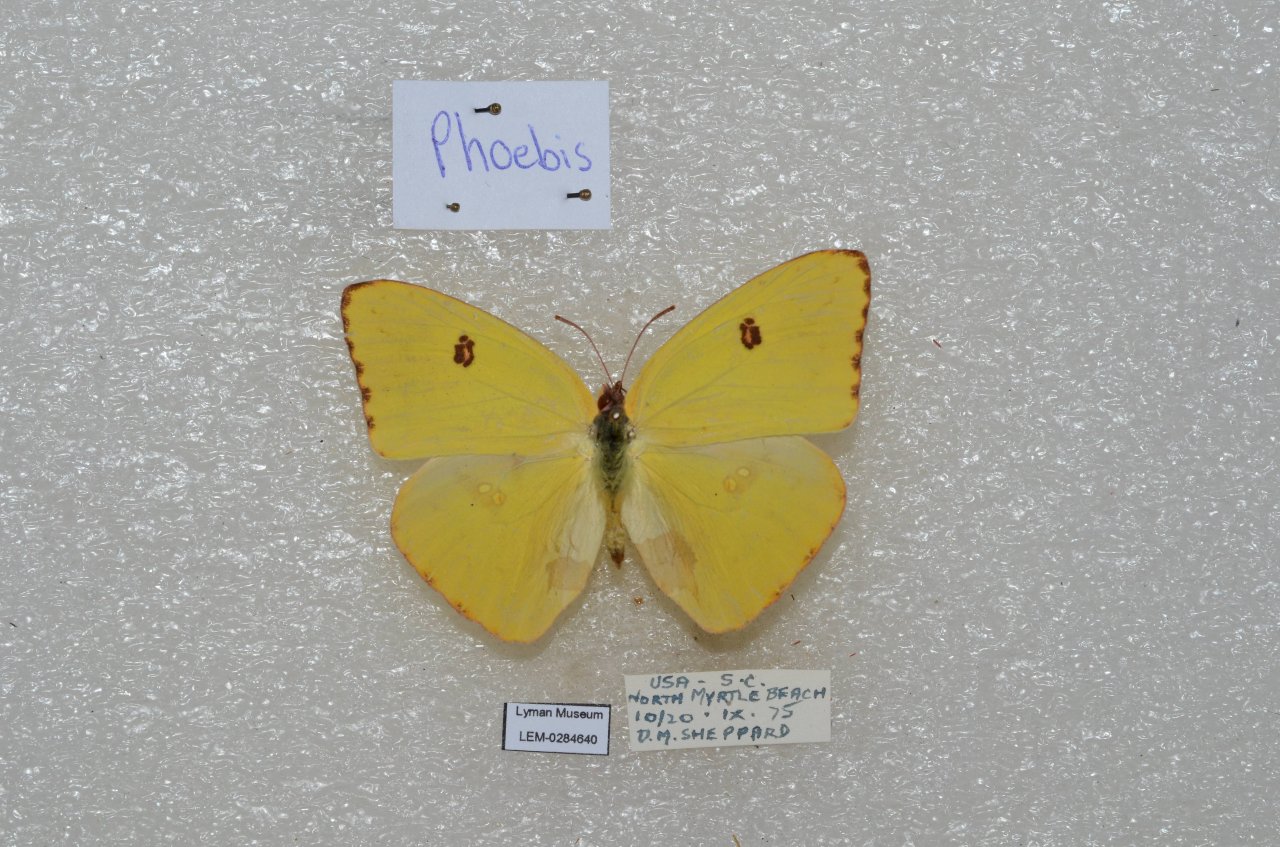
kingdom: Animalia
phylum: Arthropoda
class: Insecta
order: Lepidoptera
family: Pieridae
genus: Phoebis
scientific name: Phoebis sennae
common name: Cloudless Sulphur
